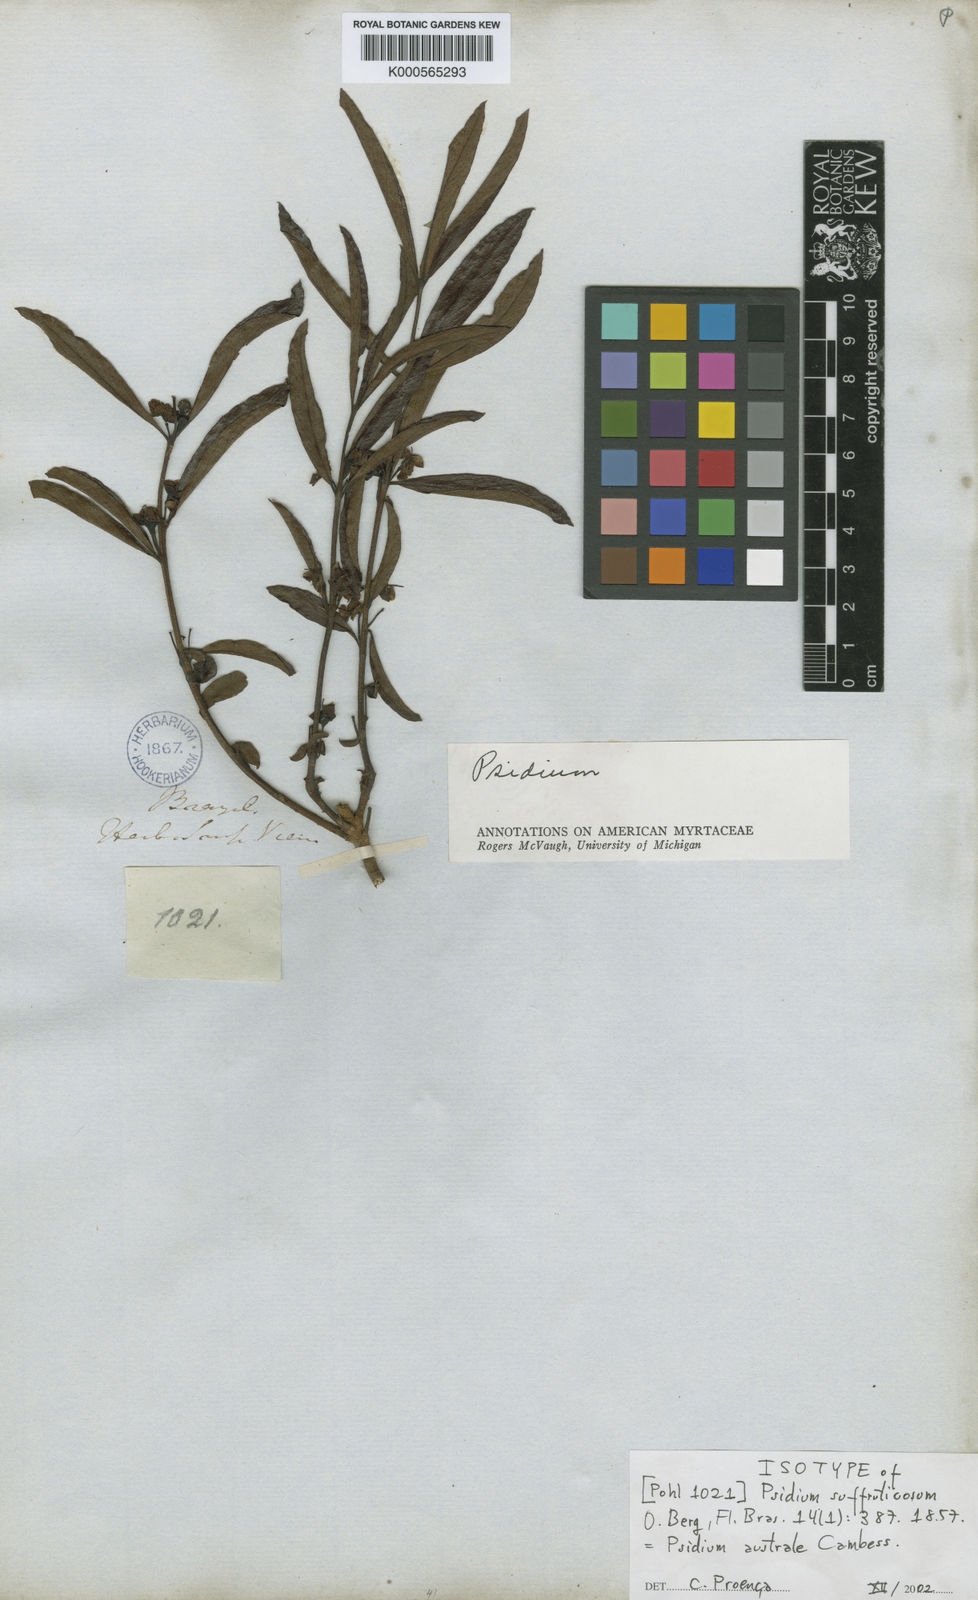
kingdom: Plantae
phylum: Tracheophyta
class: Magnoliopsida
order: Myrtales
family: Myrtaceae
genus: Psidium
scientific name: Psidium australe
